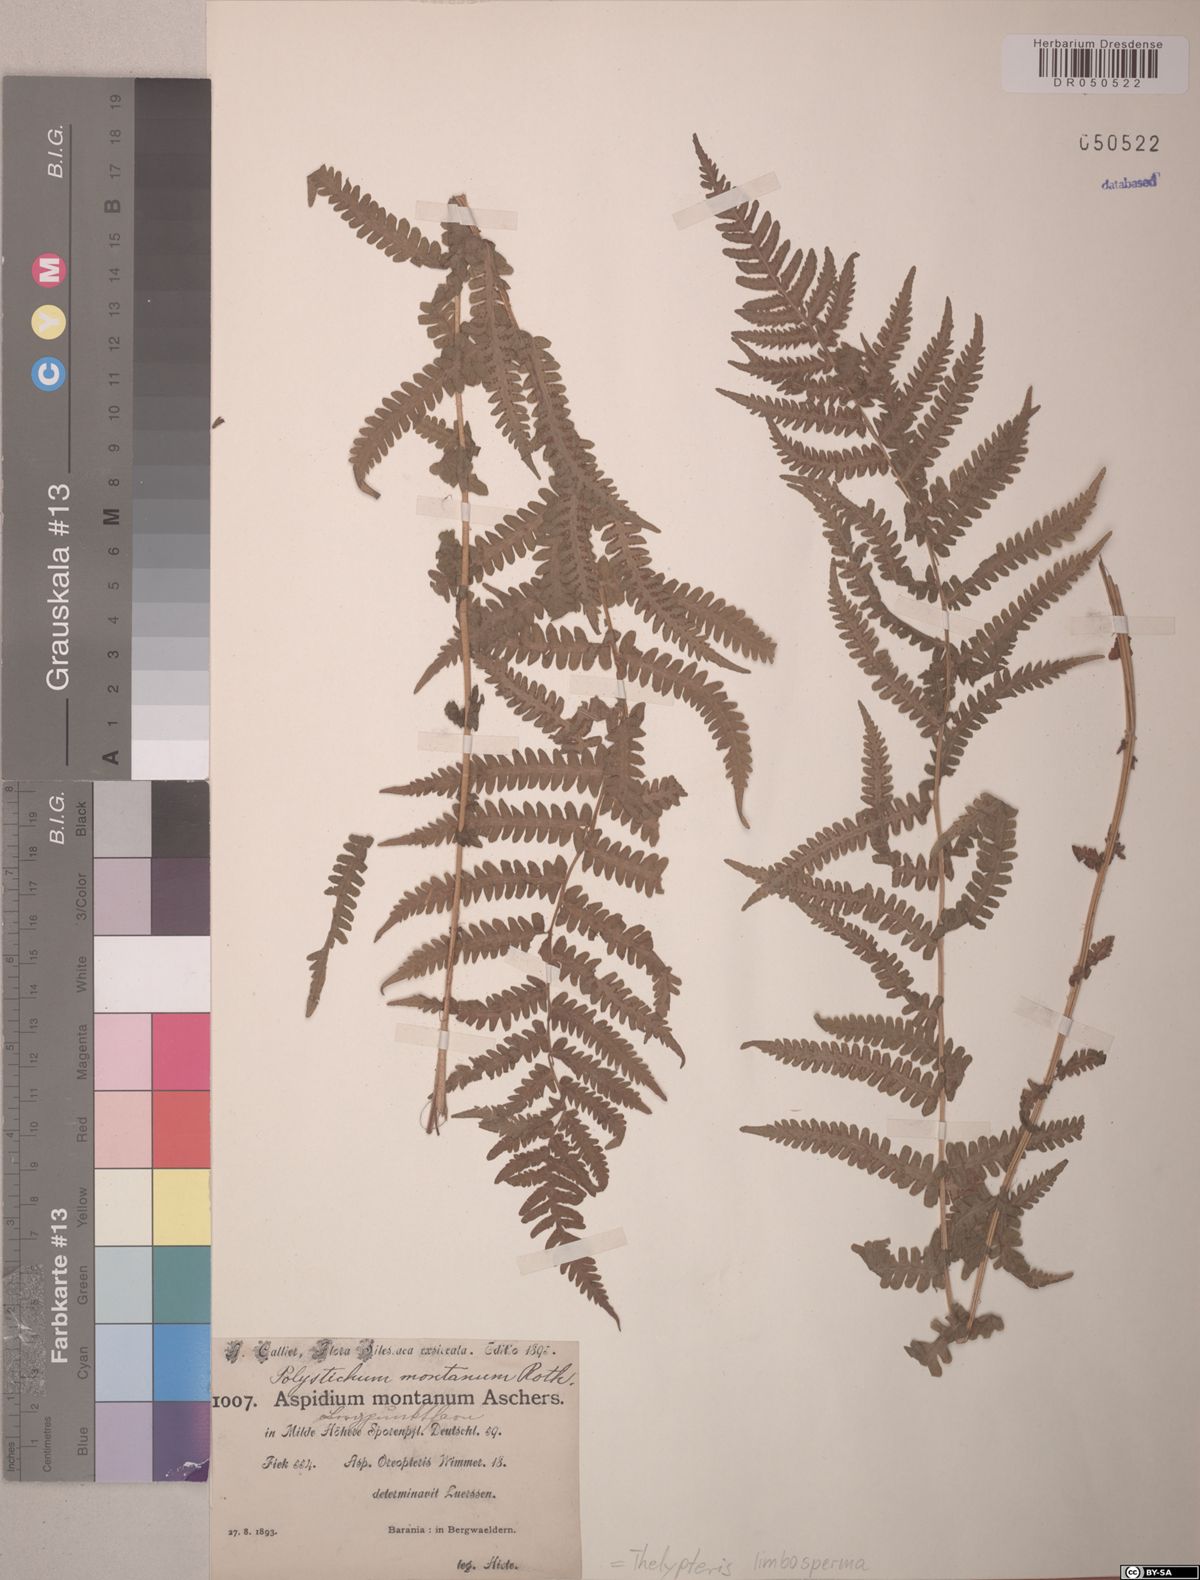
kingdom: Plantae
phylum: Tracheophyta
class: Polypodiopsida
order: Polypodiales
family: Thelypteridaceae
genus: Oreopteris
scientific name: Oreopteris limbosperma
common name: Lemon-scented fern
